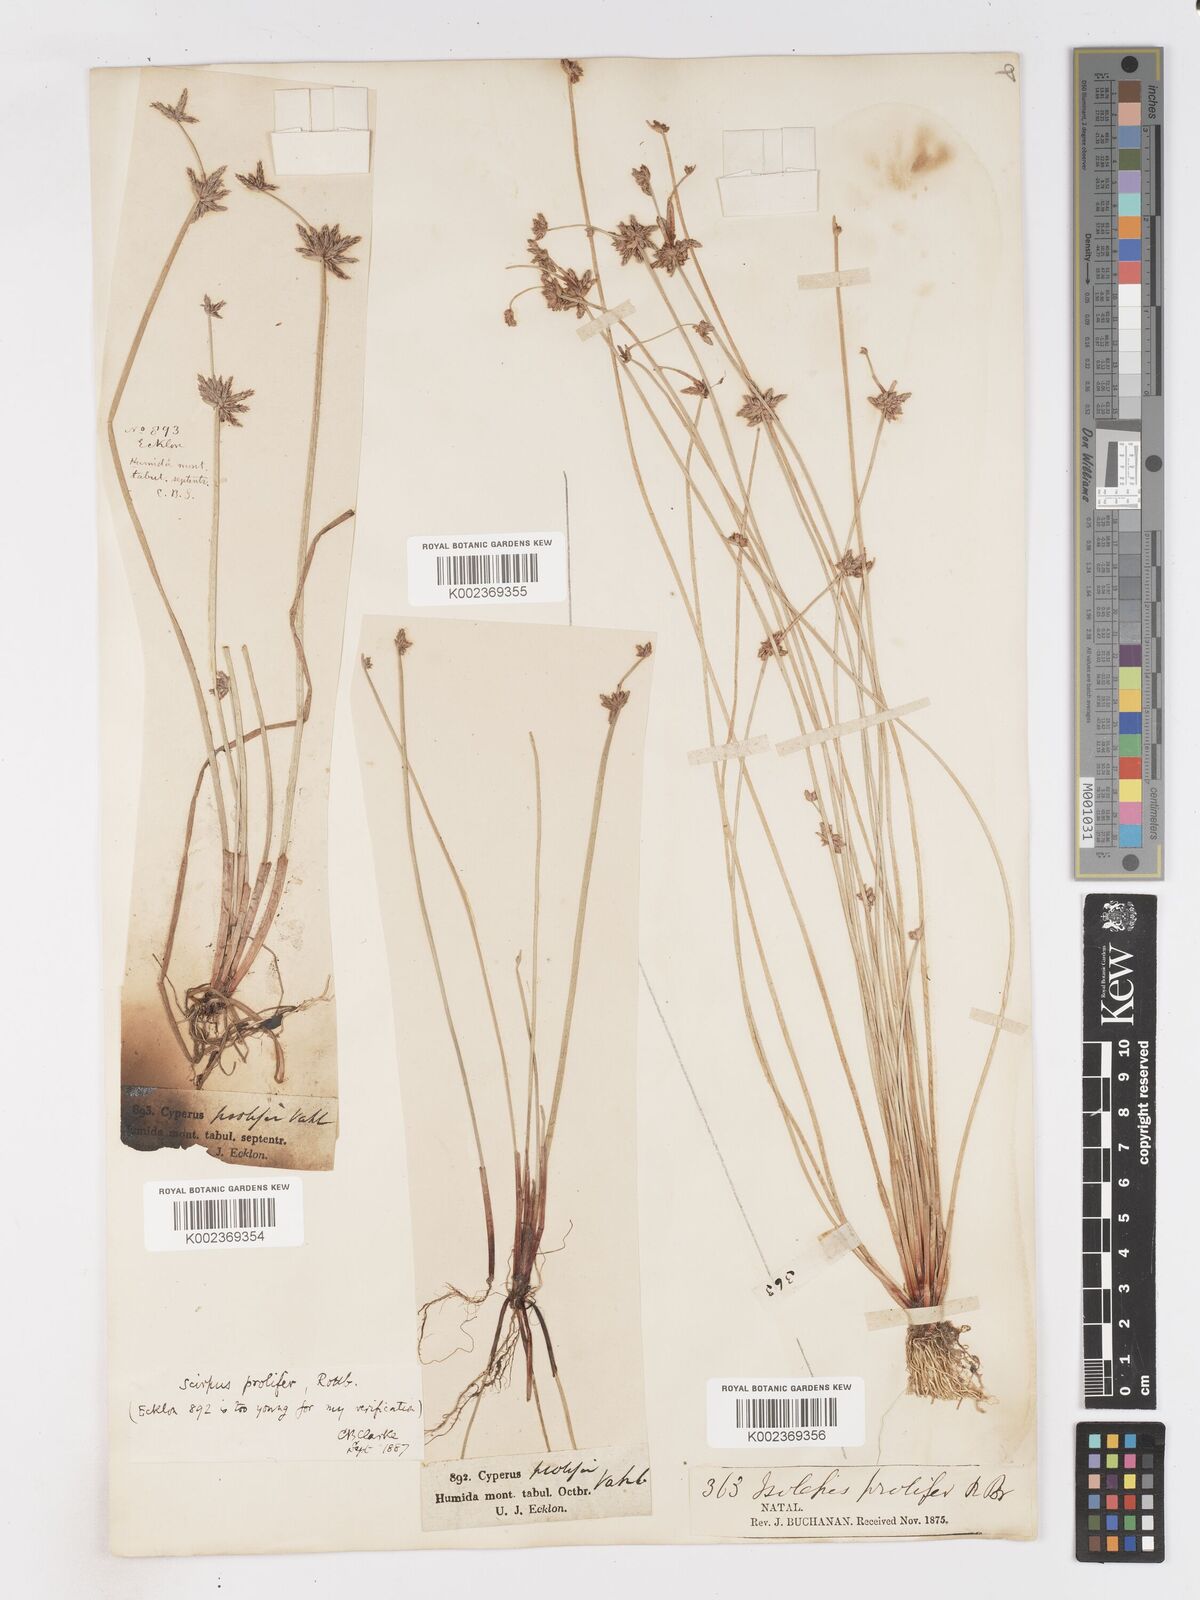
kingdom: Plantae
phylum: Tracheophyta
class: Liliopsida
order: Poales
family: Cyperaceae
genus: Isolepis
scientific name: Isolepis prolifera
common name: Proliferating bulrush
